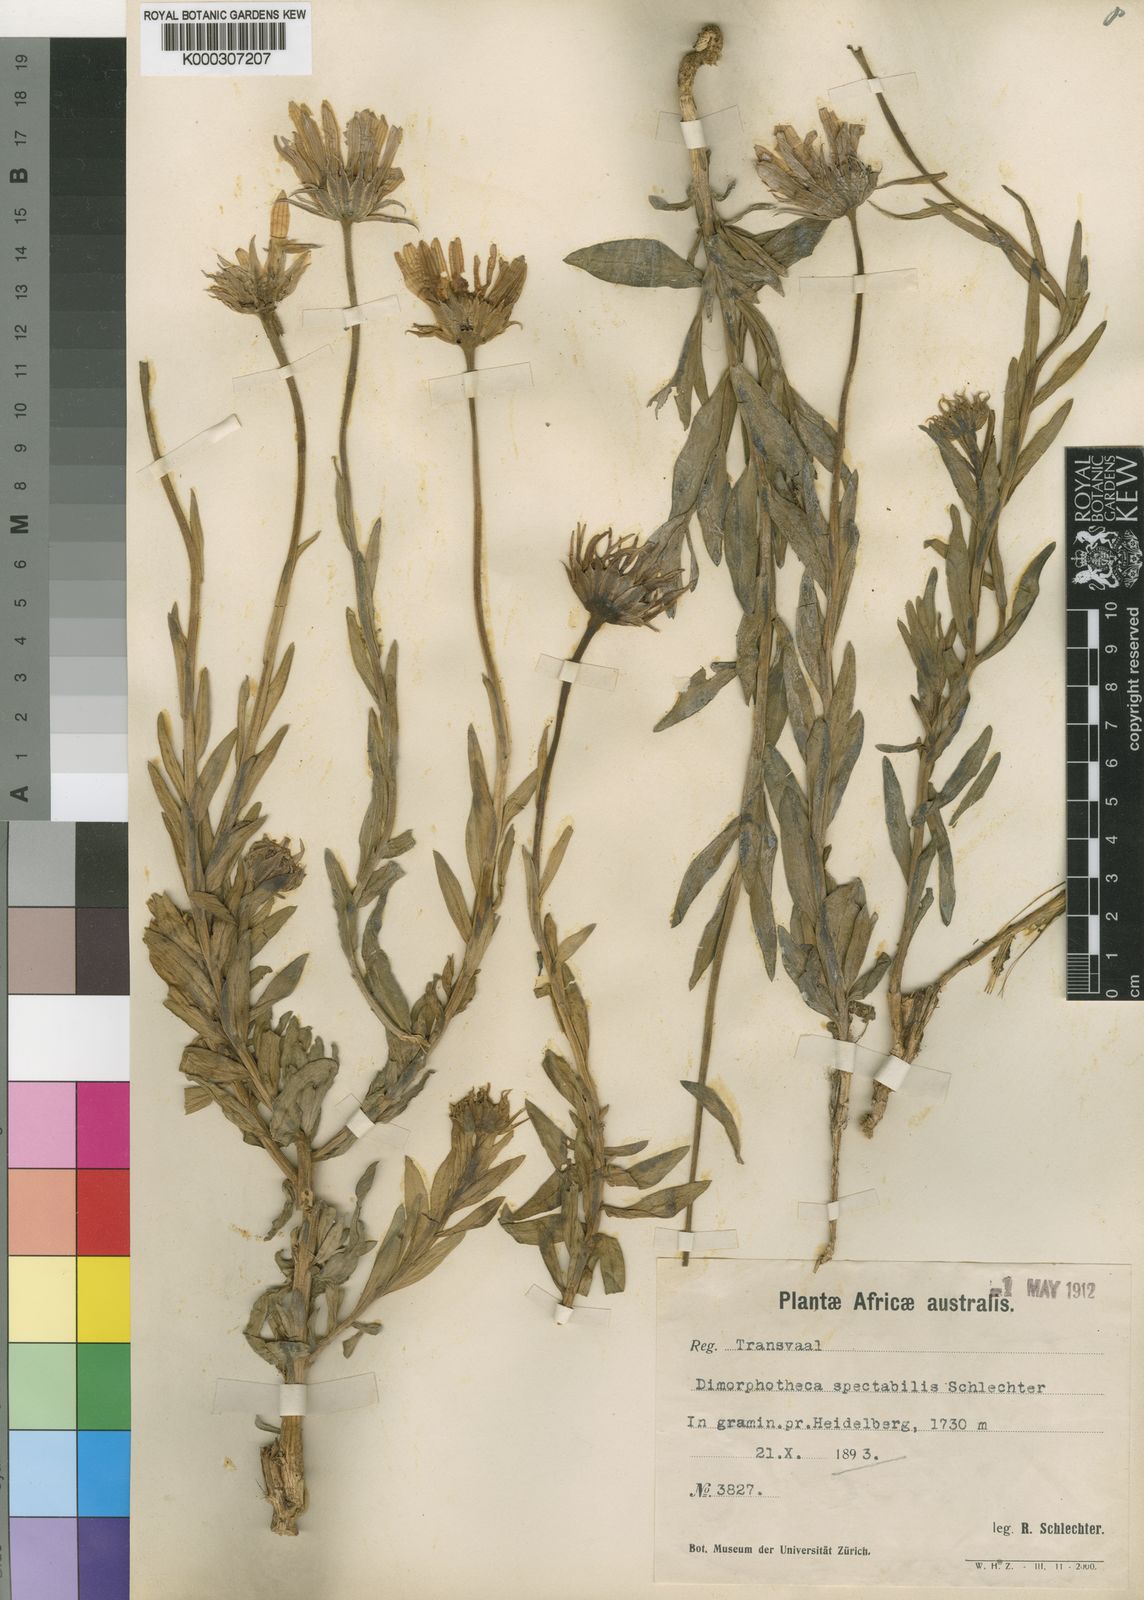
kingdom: Plantae
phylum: Tracheophyta
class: Magnoliopsida
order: Asterales
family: Asteraceae
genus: Dimorphotheca
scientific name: Dimorphotheca spectabilis
